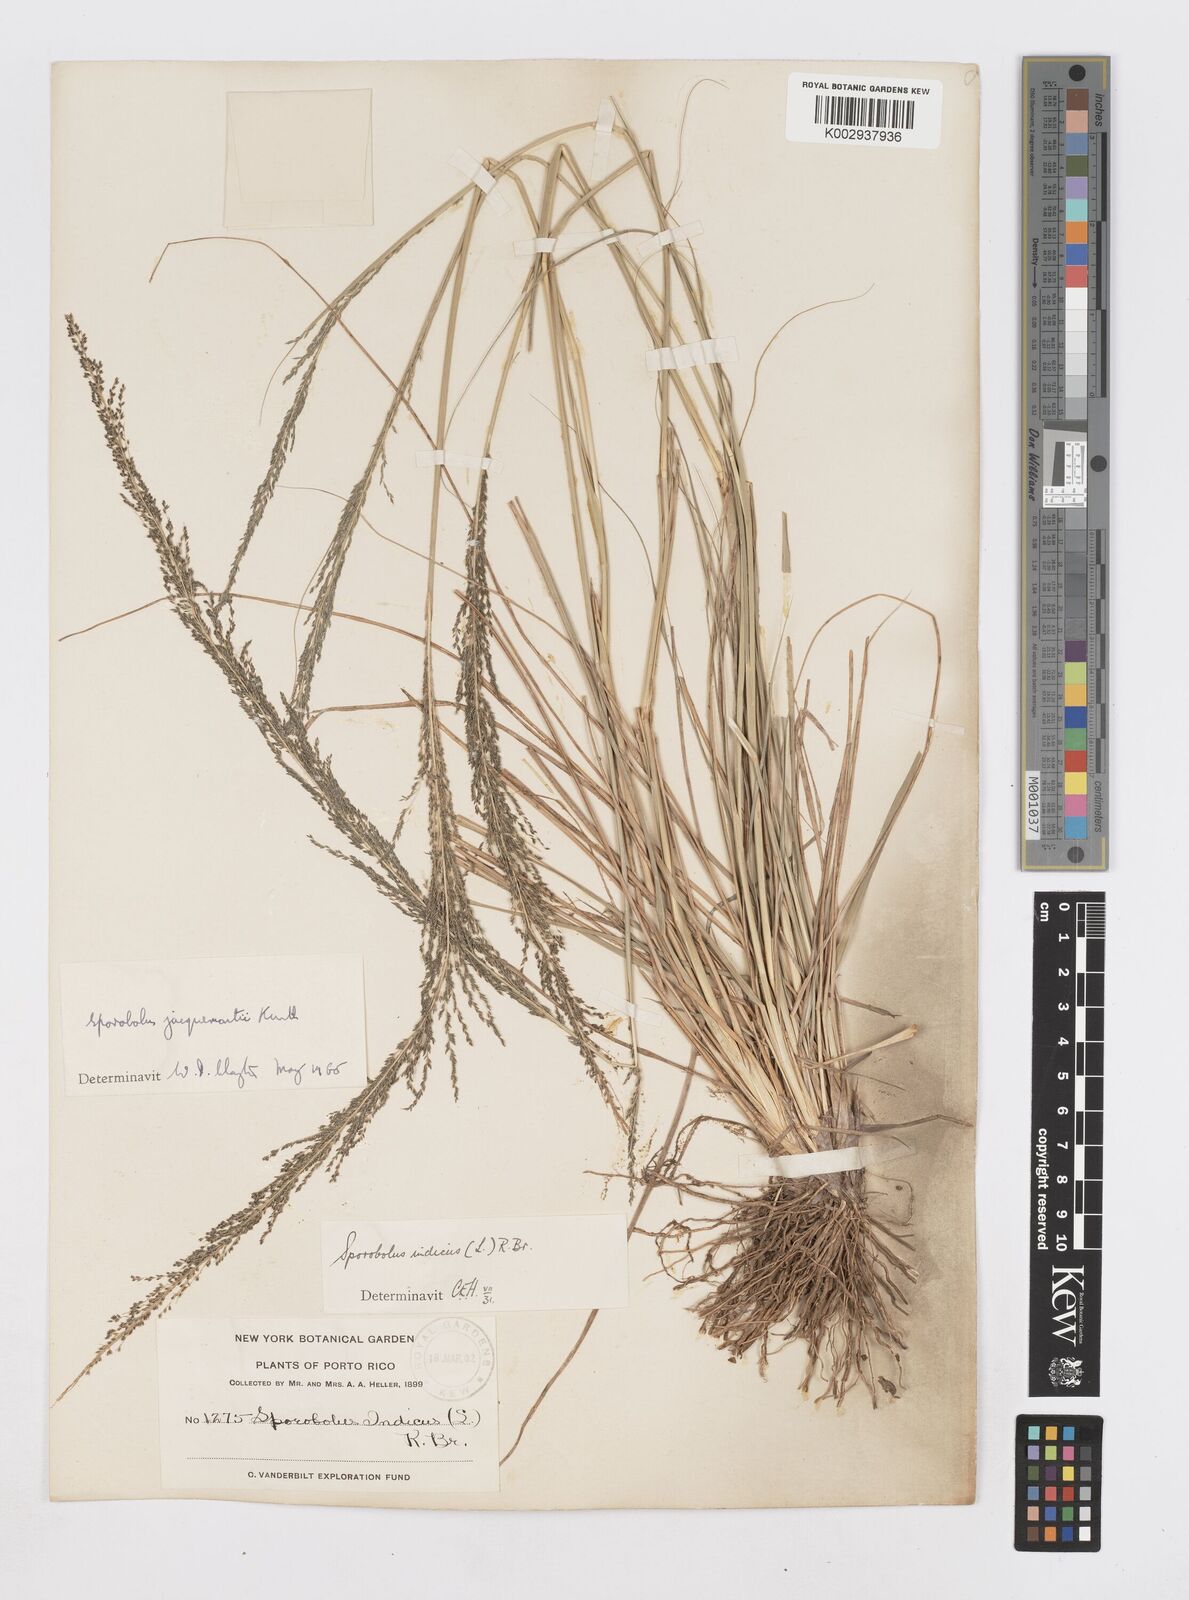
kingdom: Plantae
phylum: Tracheophyta
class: Liliopsida
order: Poales
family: Poaceae
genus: Sporobolus
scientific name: Sporobolus pyramidalis
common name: West indian dropseed
